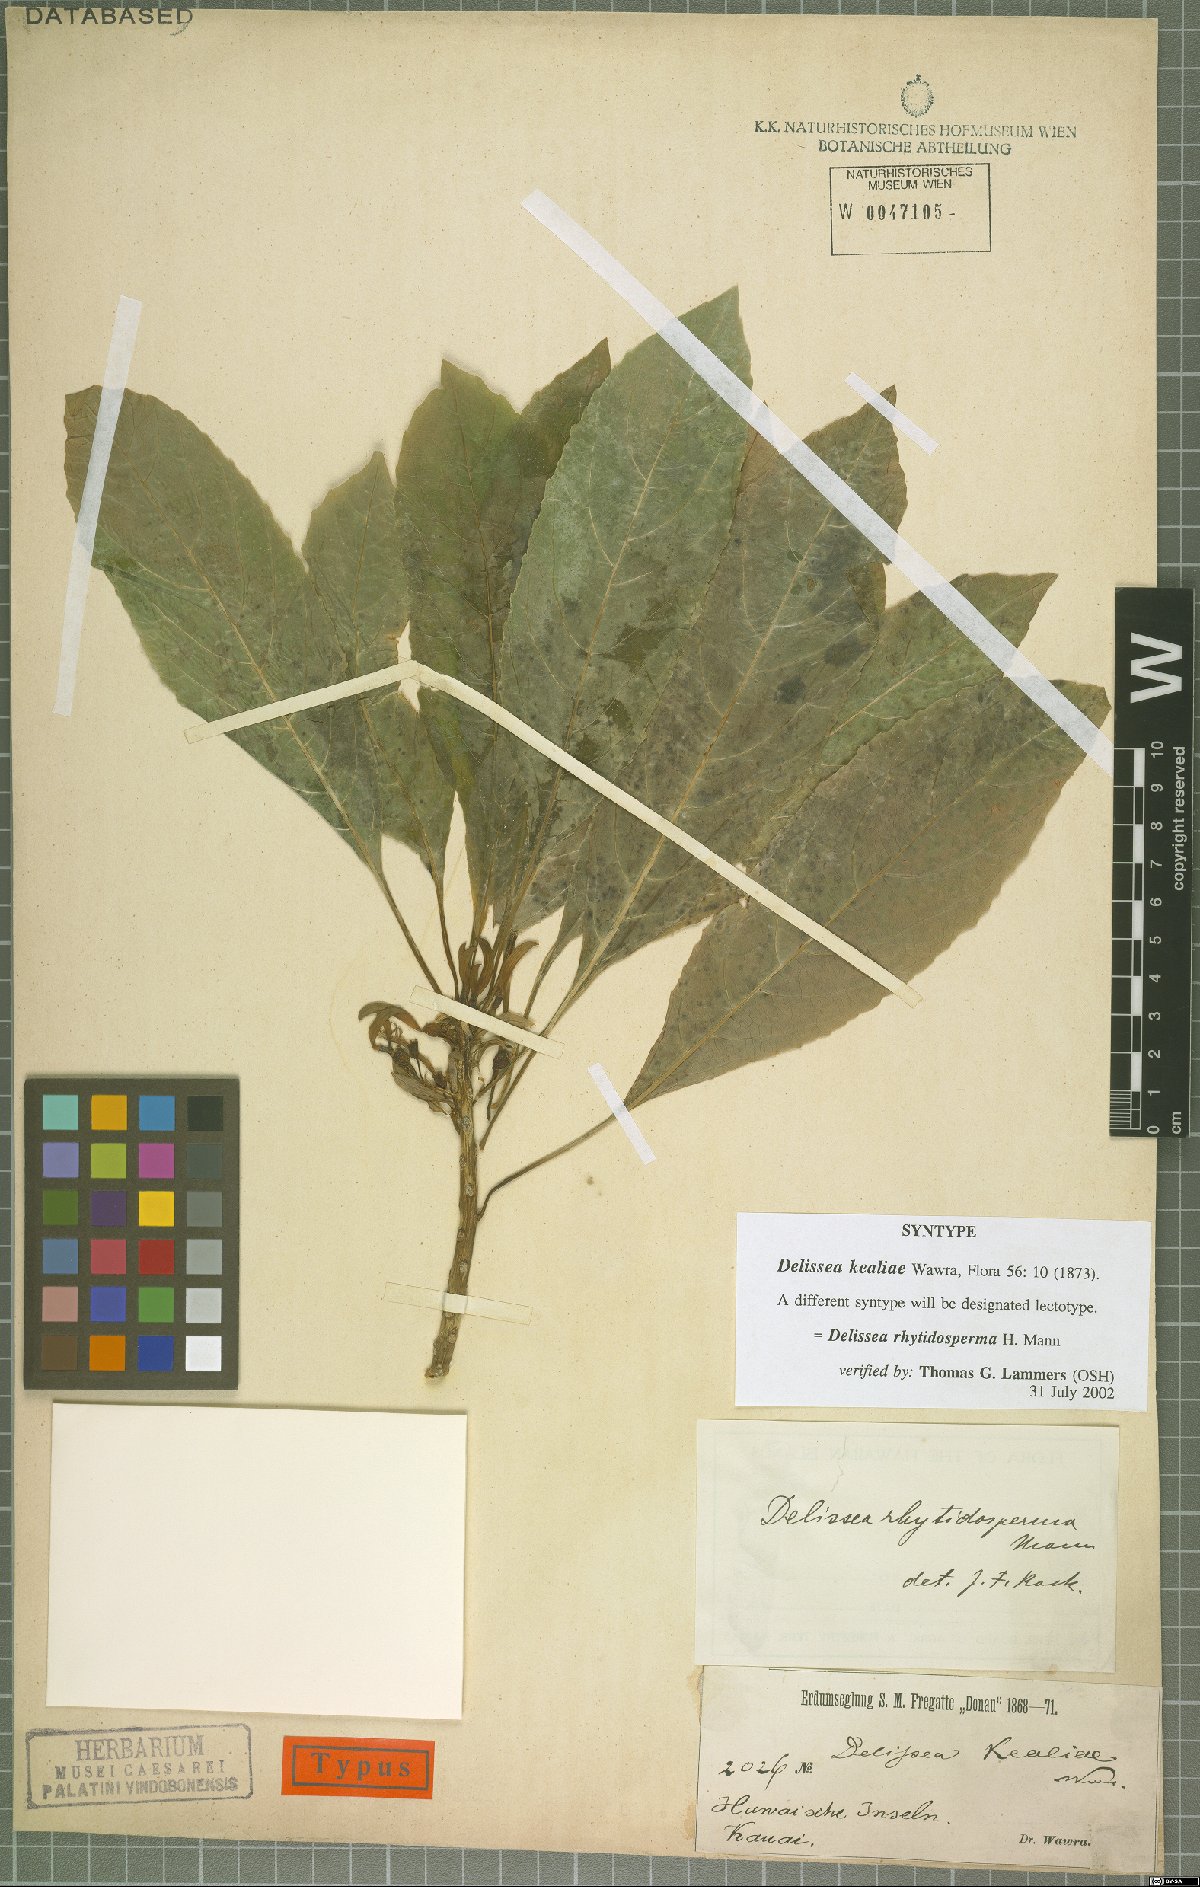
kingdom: Plantae
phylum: Tracheophyta
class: Magnoliopsida
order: Asterales
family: Campanulaceae
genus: Delissea
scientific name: Delissea rhytidosperma
